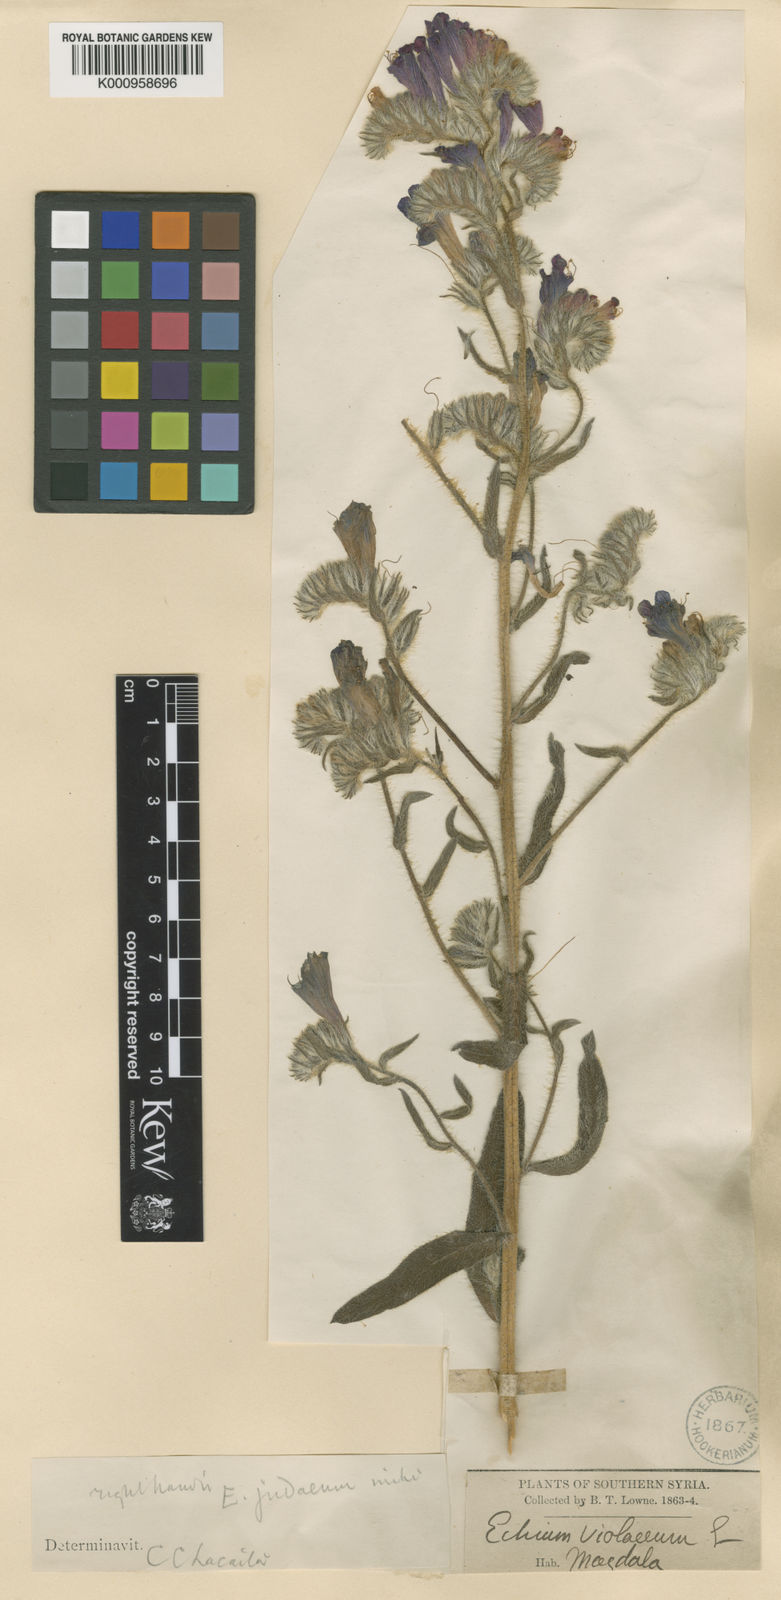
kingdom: Plantae
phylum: Tracheophyta
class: Magnoliopsida
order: Boraginales
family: Boraginaceae
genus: Echium
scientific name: Echium judaeum
